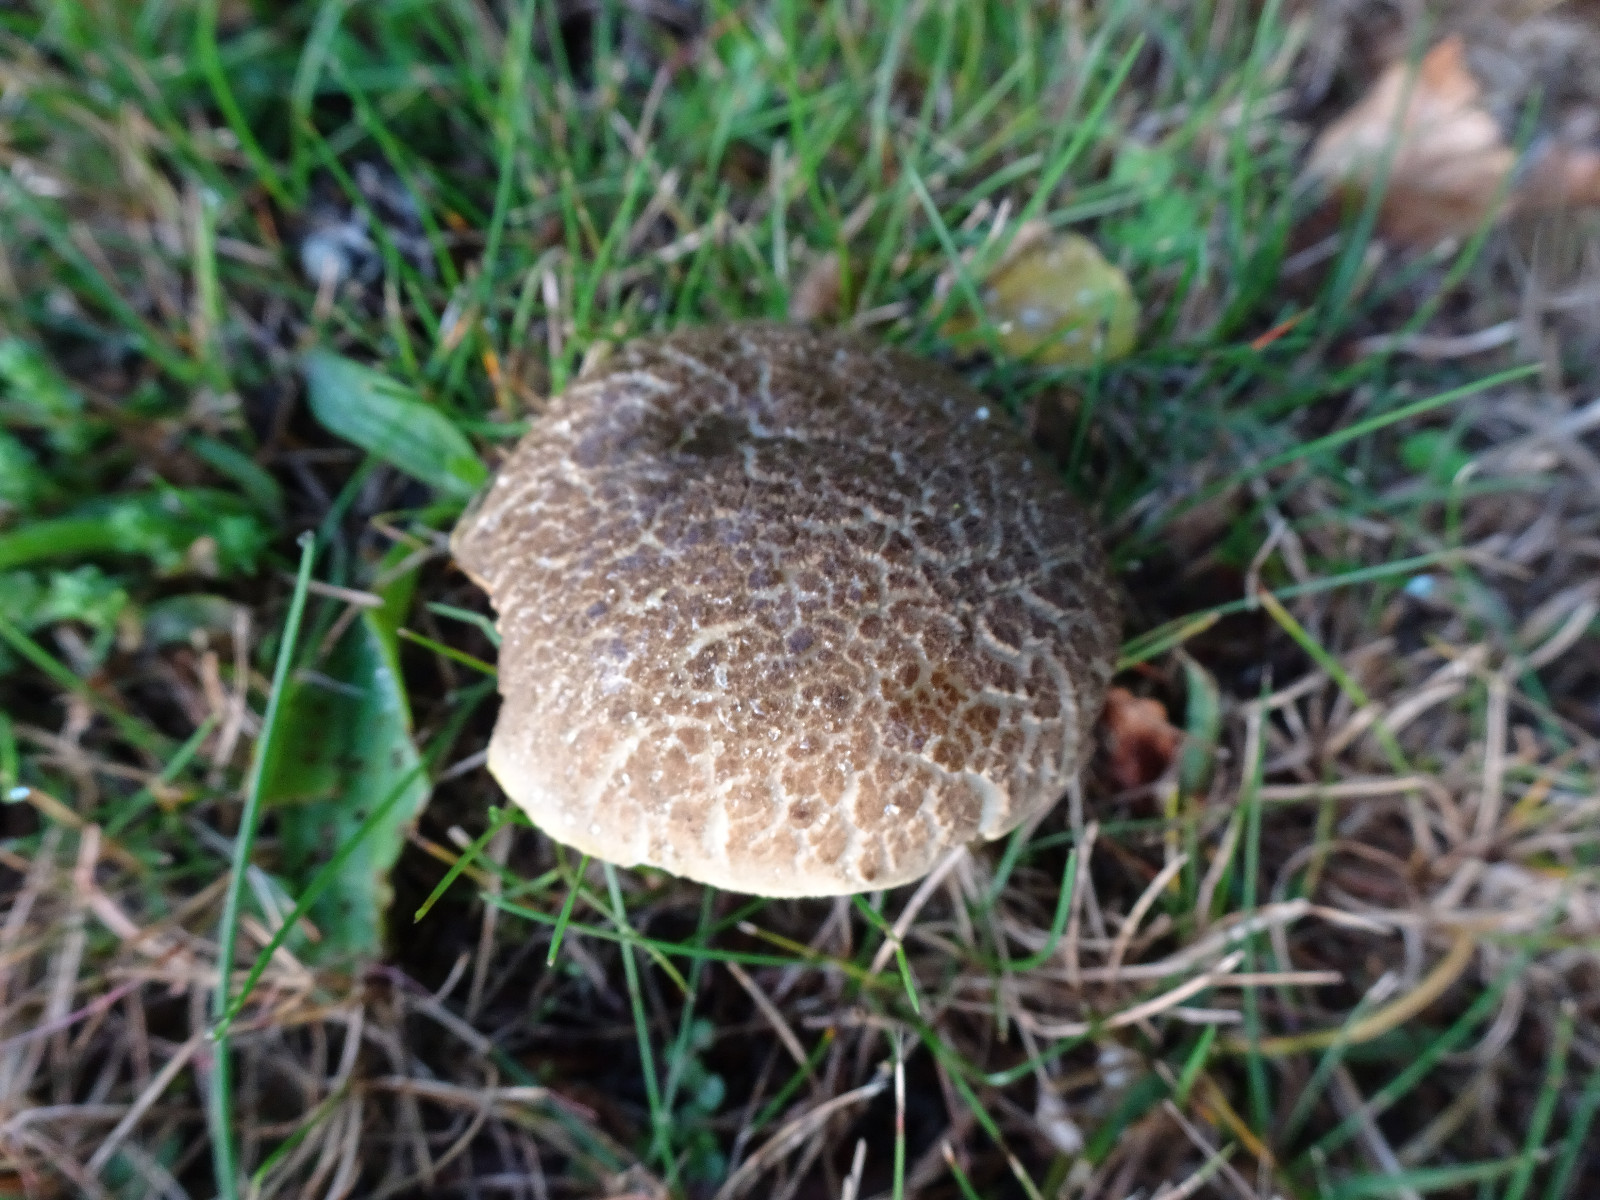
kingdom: Fungi
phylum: Basidiomycota
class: Agaricomycetes
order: Boletales
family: Boletaceae
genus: Xerocomellus
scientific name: Xerocomellus porosporus
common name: hvidsprukken rørhat
